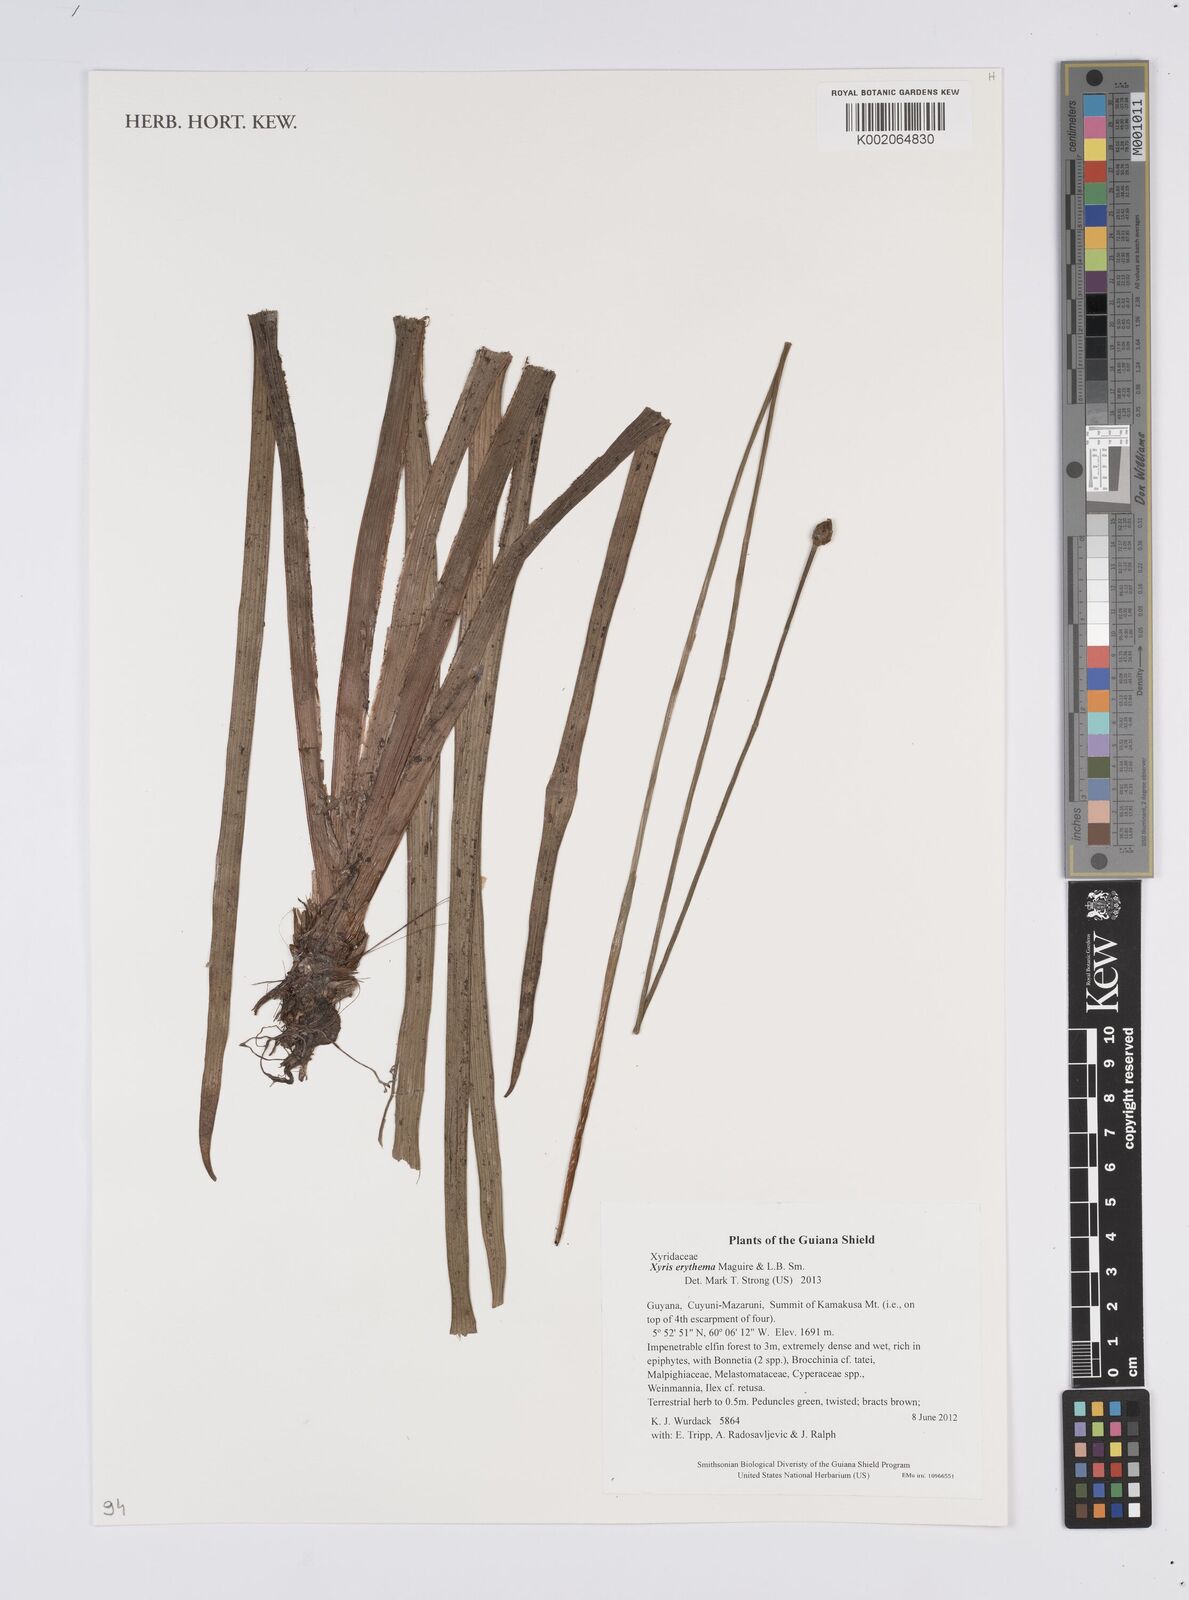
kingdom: Plantae
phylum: Tracheophyta
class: Liliopsida
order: Poales
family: Xyridaceae
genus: Xyris
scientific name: Xyris fallax
